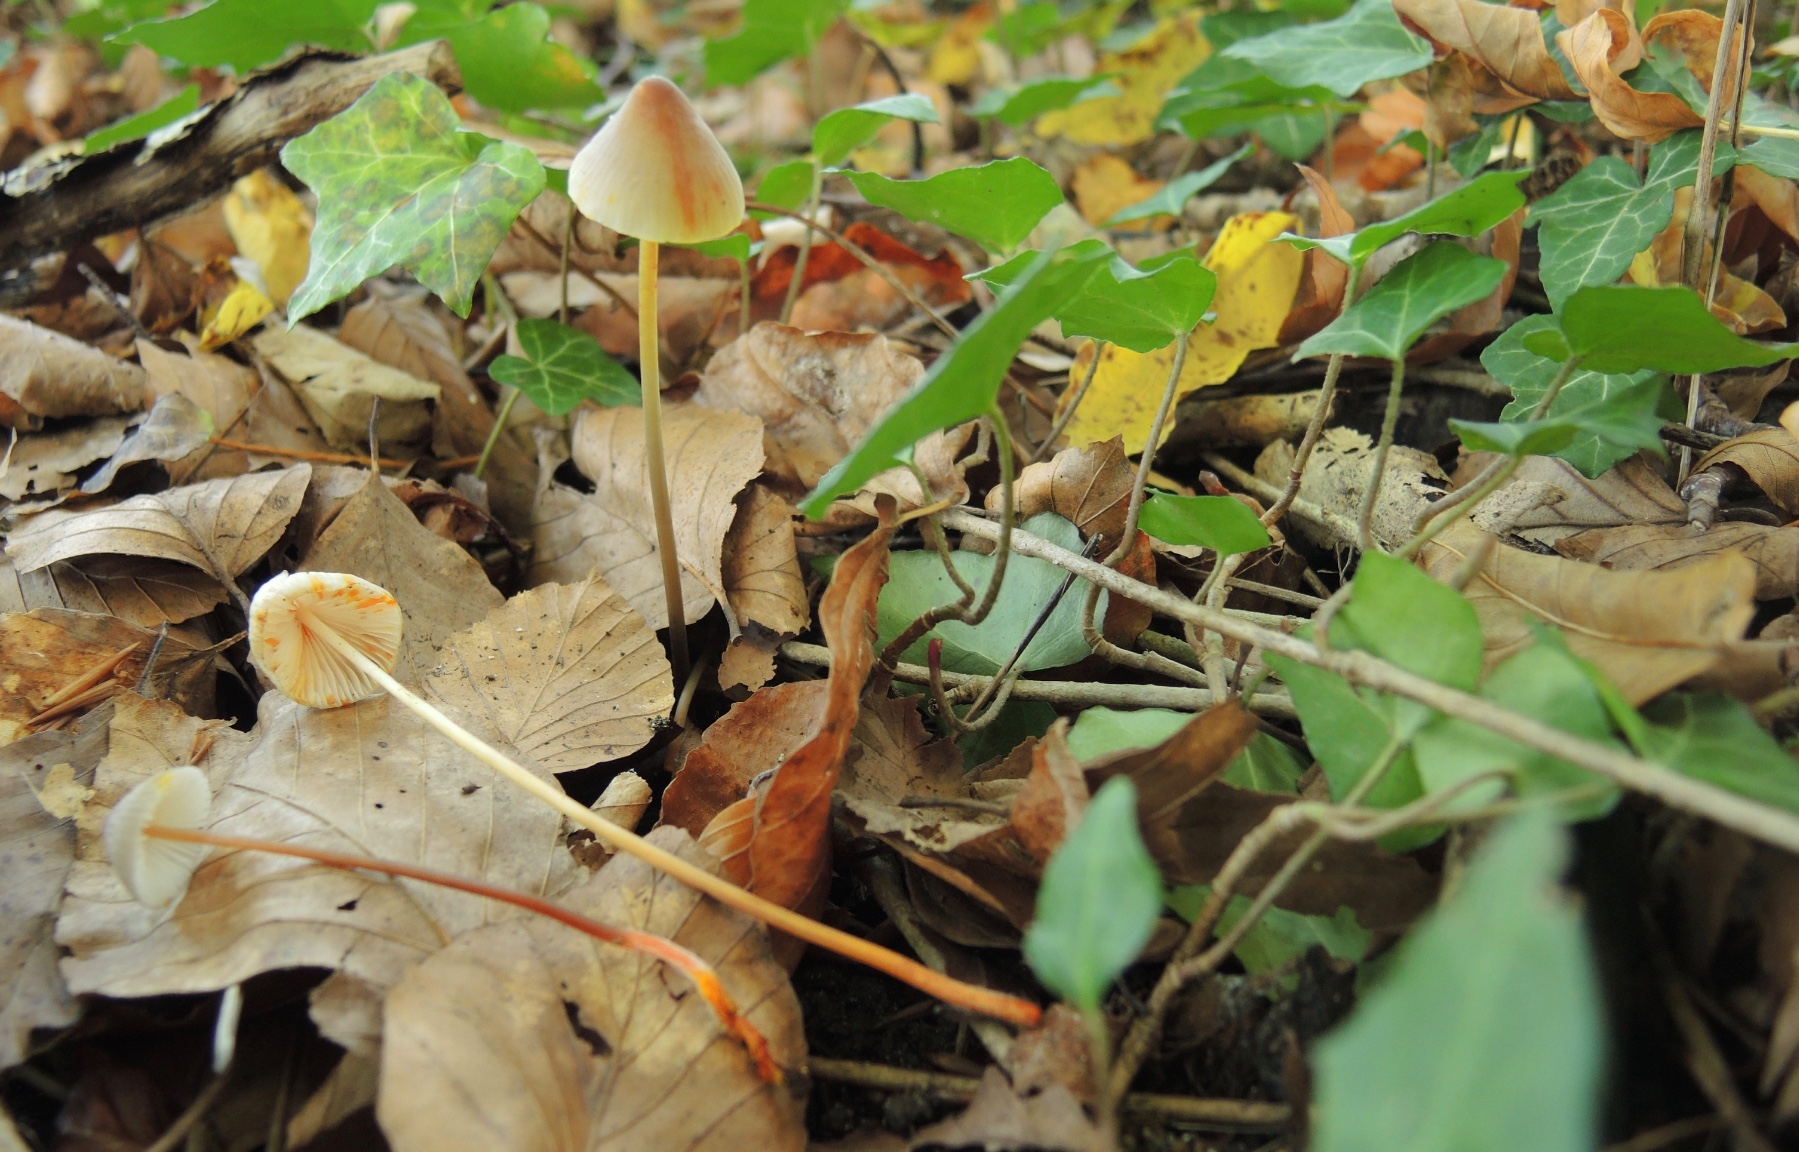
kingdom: Fungi
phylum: Basidiomycota
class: Agaricomycetes
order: Agaricales
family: Mycenaceae
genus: Mycena
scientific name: Mycena crocata
